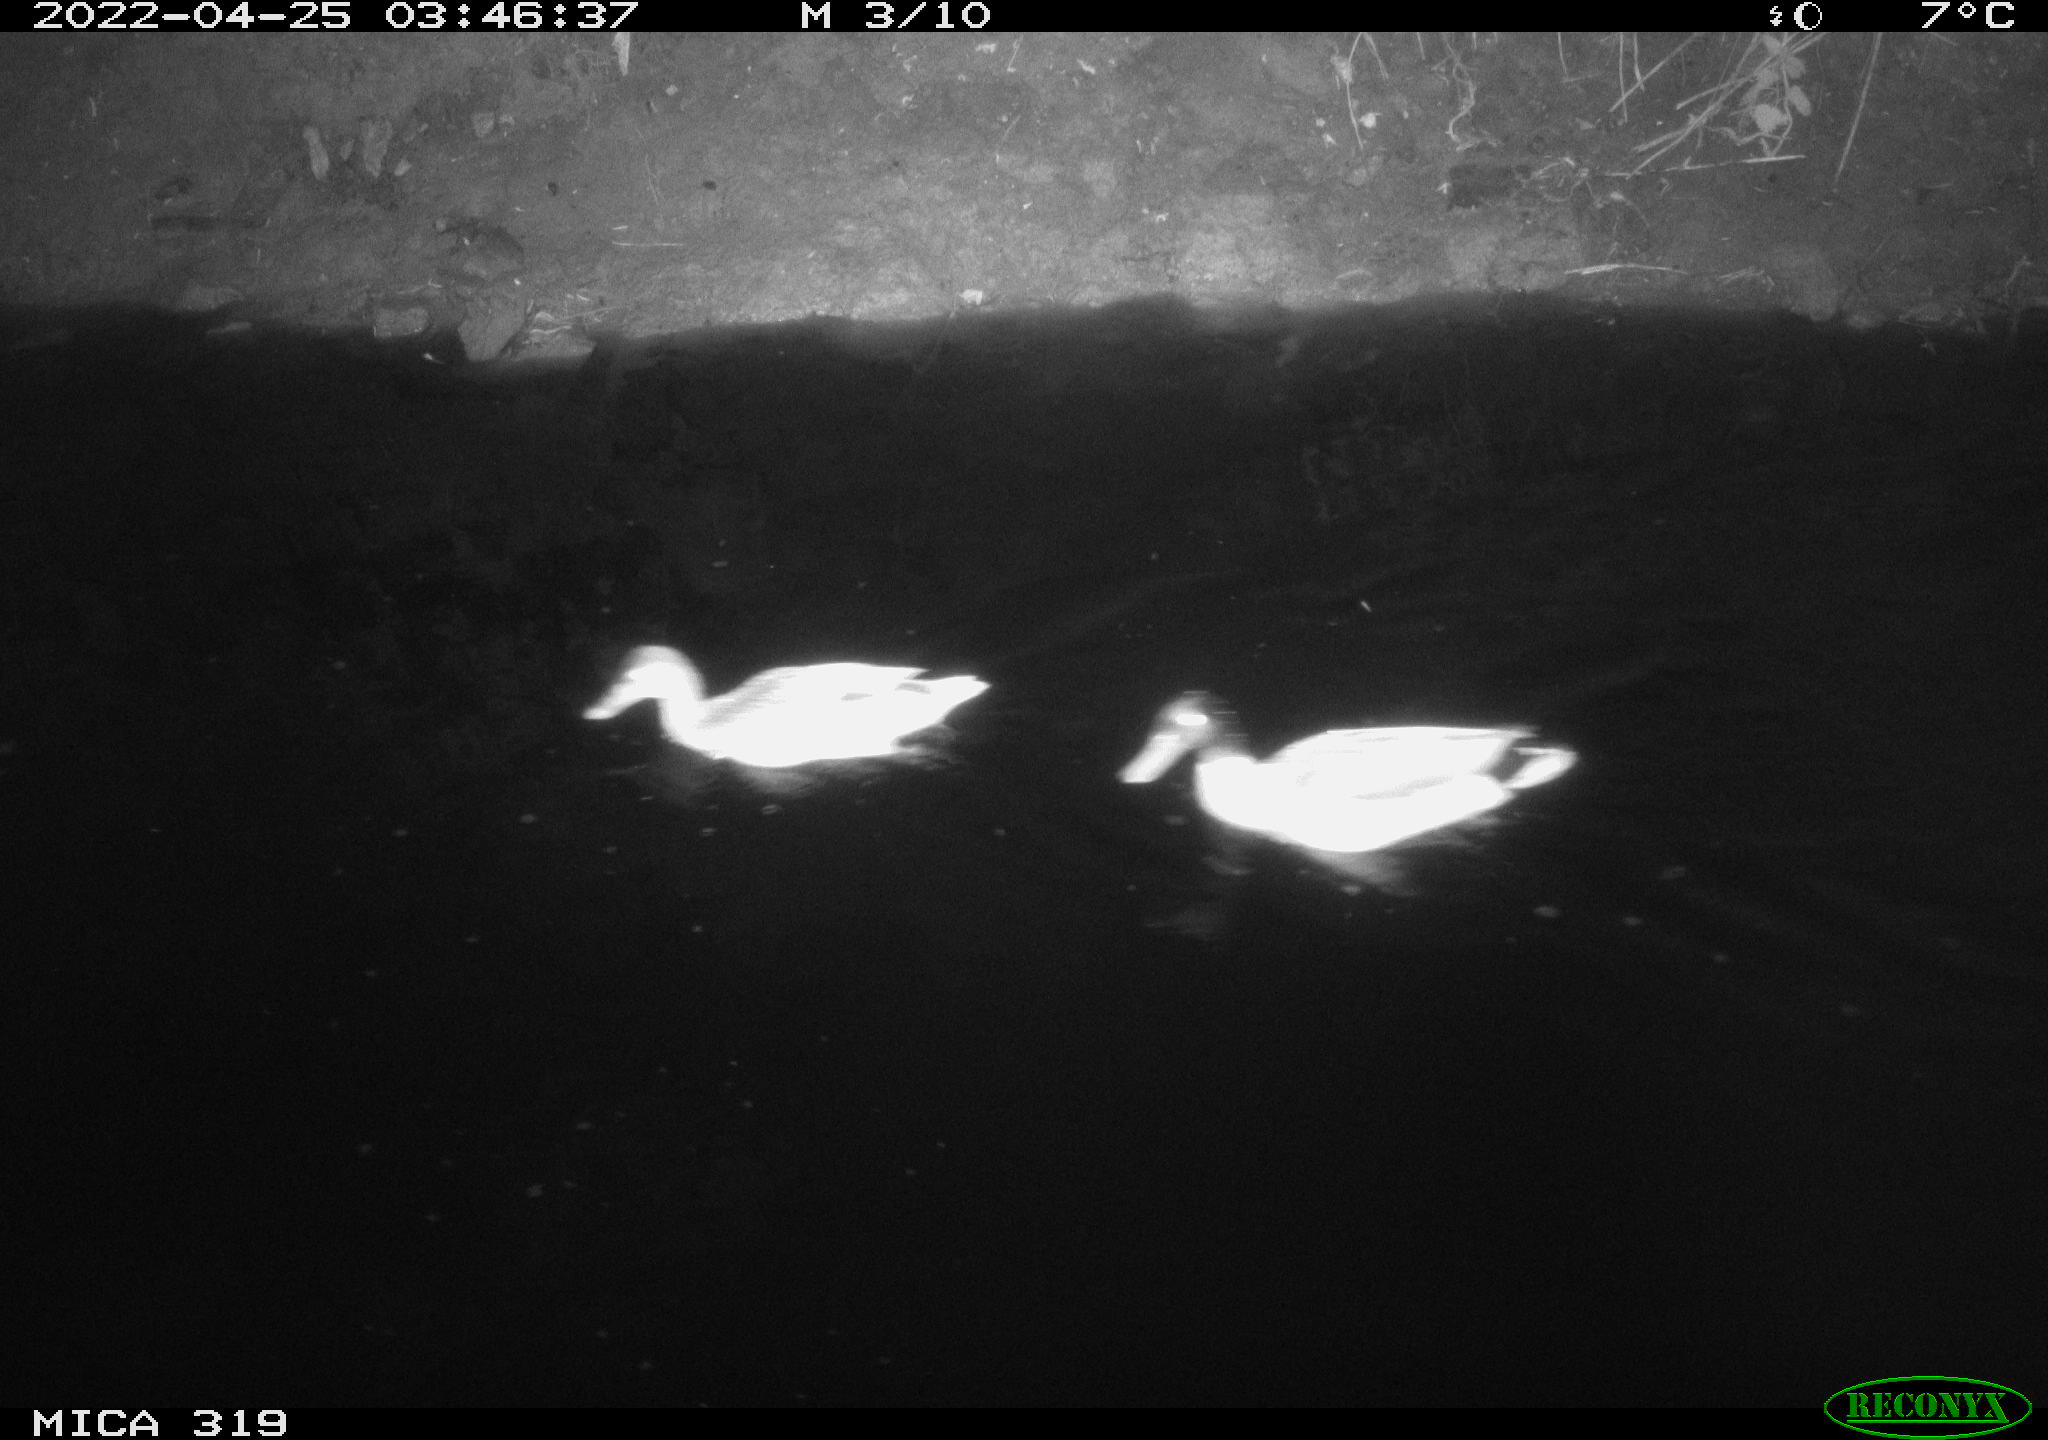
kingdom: Animalia
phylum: Chordata
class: Aves
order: Anseriformes
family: Anatidae
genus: Anas
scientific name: Anas platyrhynchos
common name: Mallard
